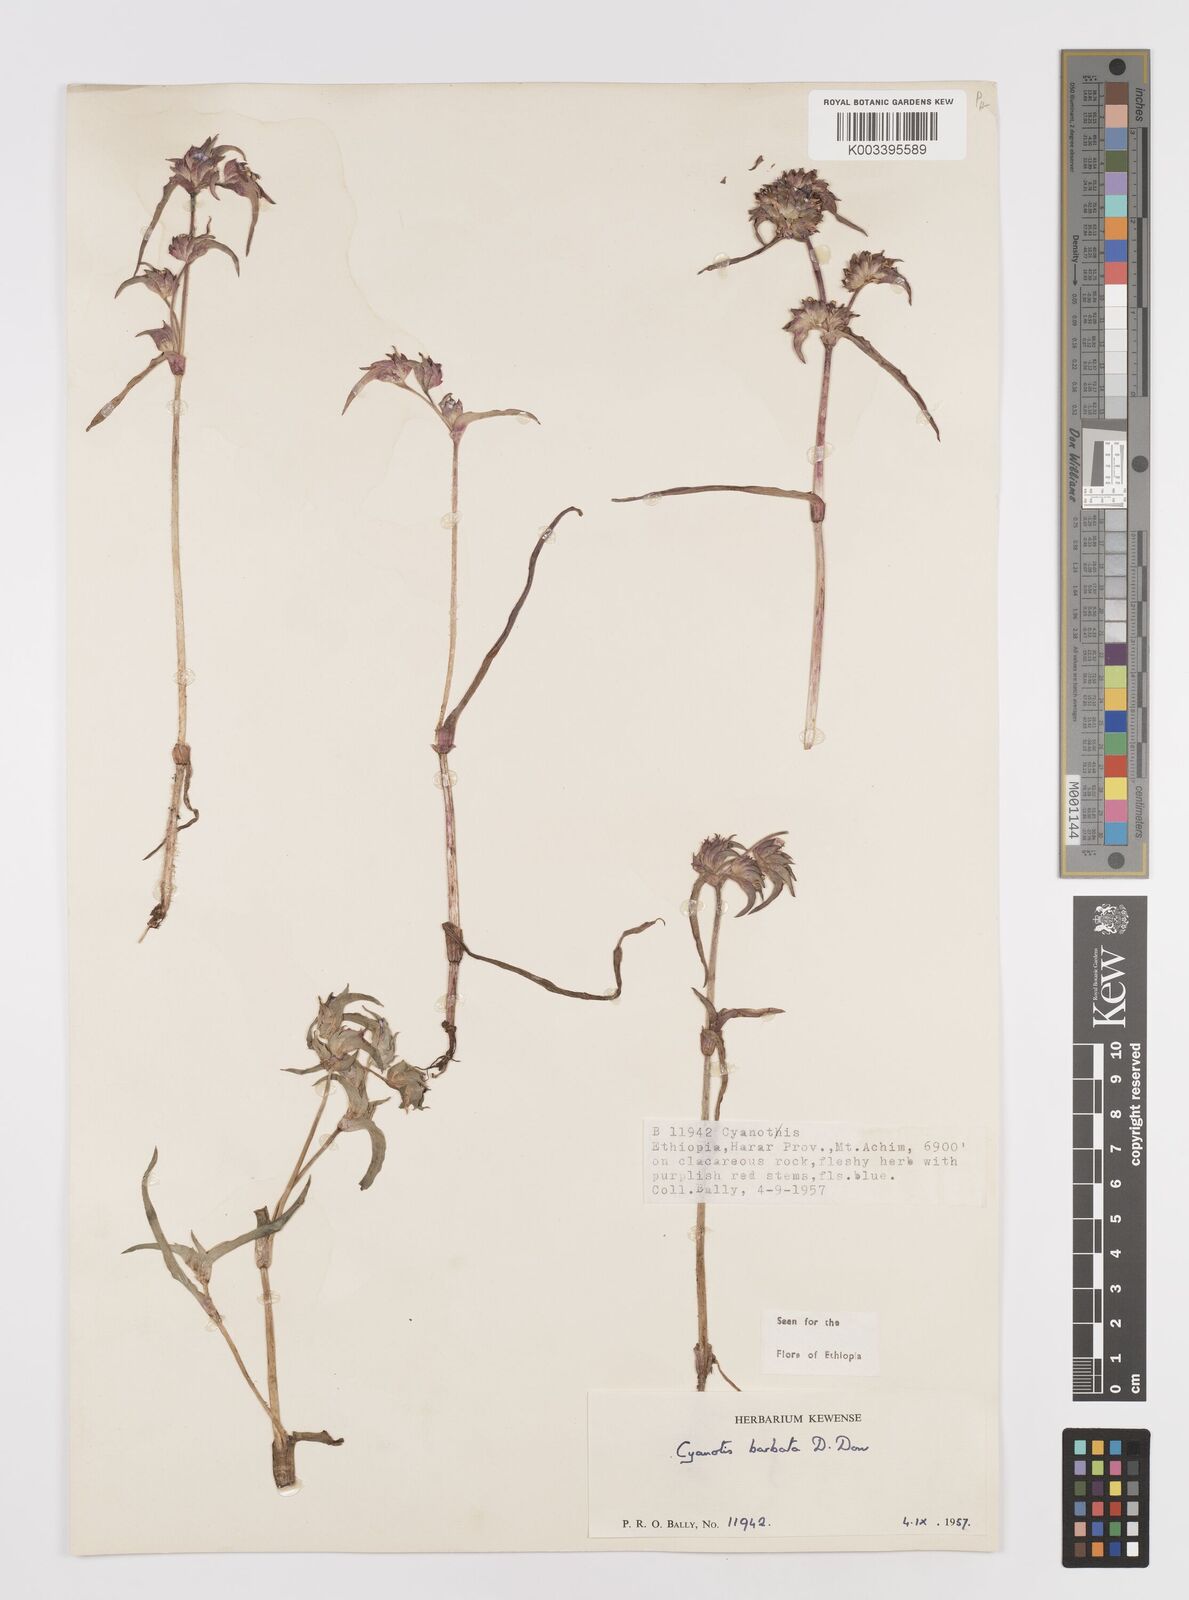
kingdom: Plantae
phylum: Tracheophyta
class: Liliopsida
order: Commelinales
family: Commelinaceae
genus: Cyanotis
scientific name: Cyanotis vaga
